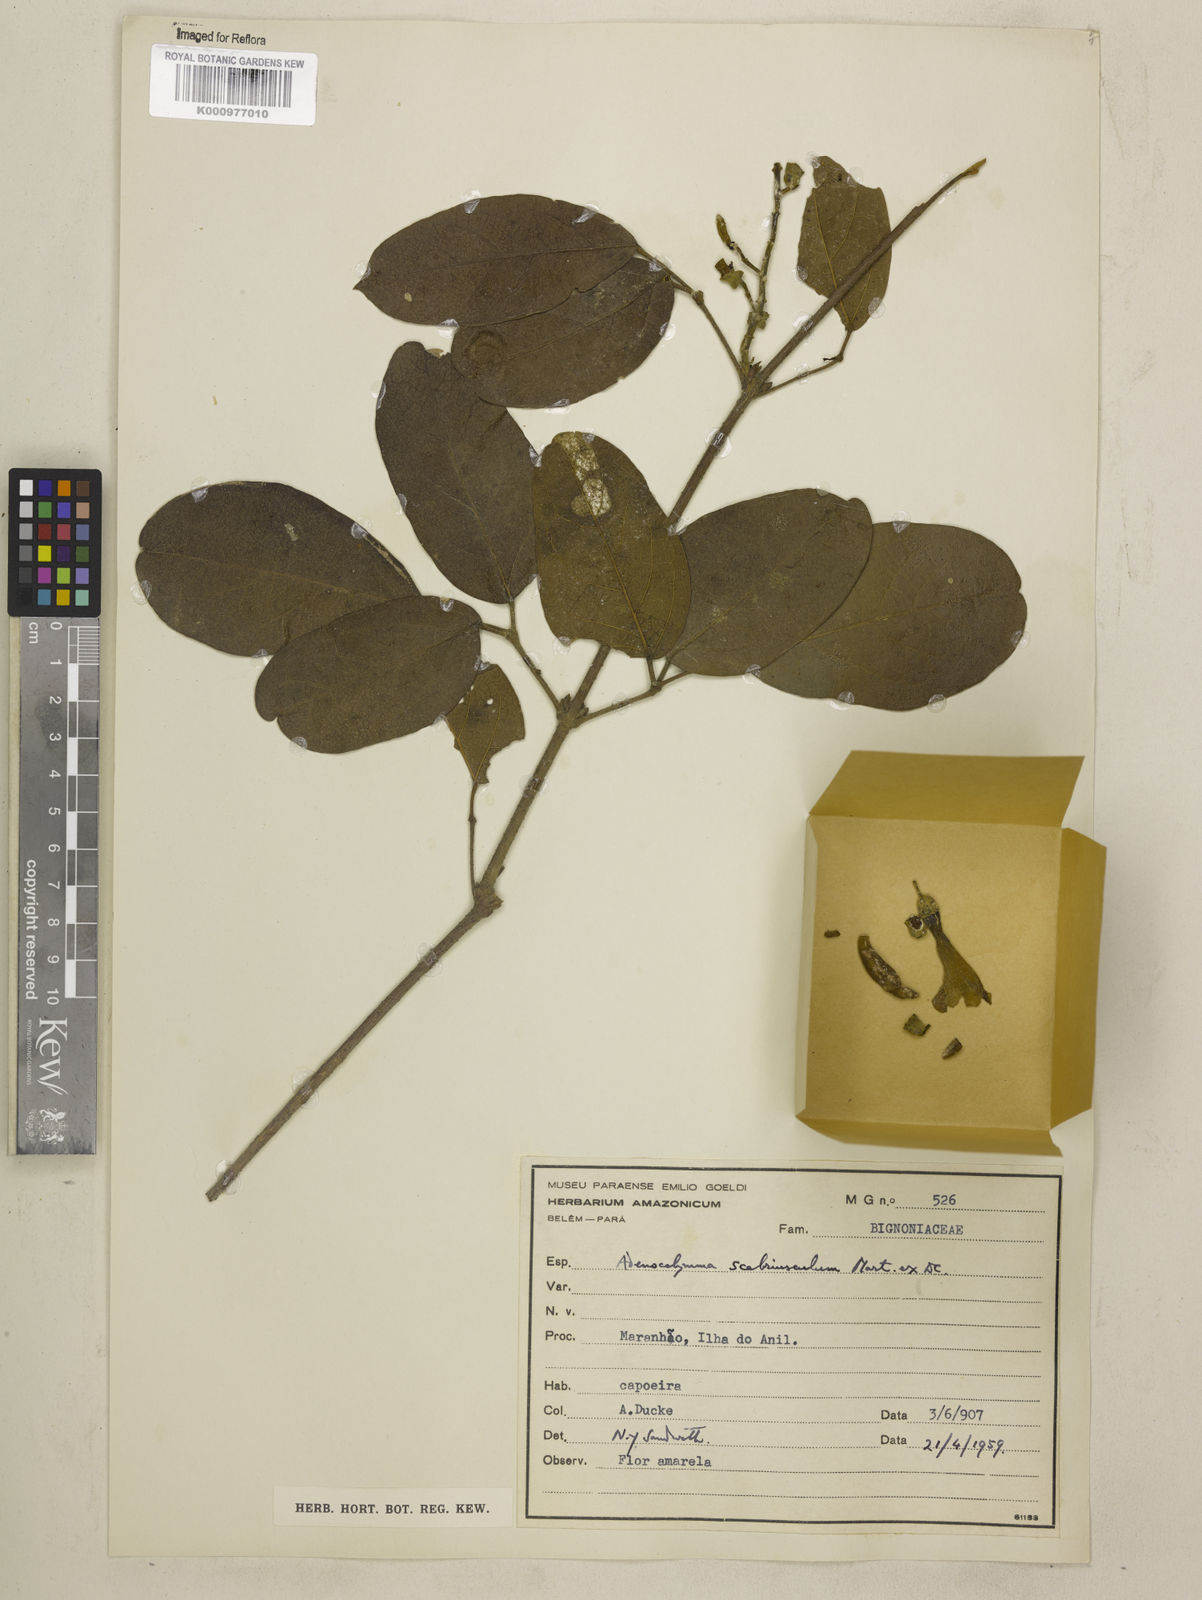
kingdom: Plantae
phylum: Tracheophyta
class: Magnoliopsida
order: Lamiales
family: Bignoniaceae
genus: Adenocalymma
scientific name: Adenocalymma scabriusculum
